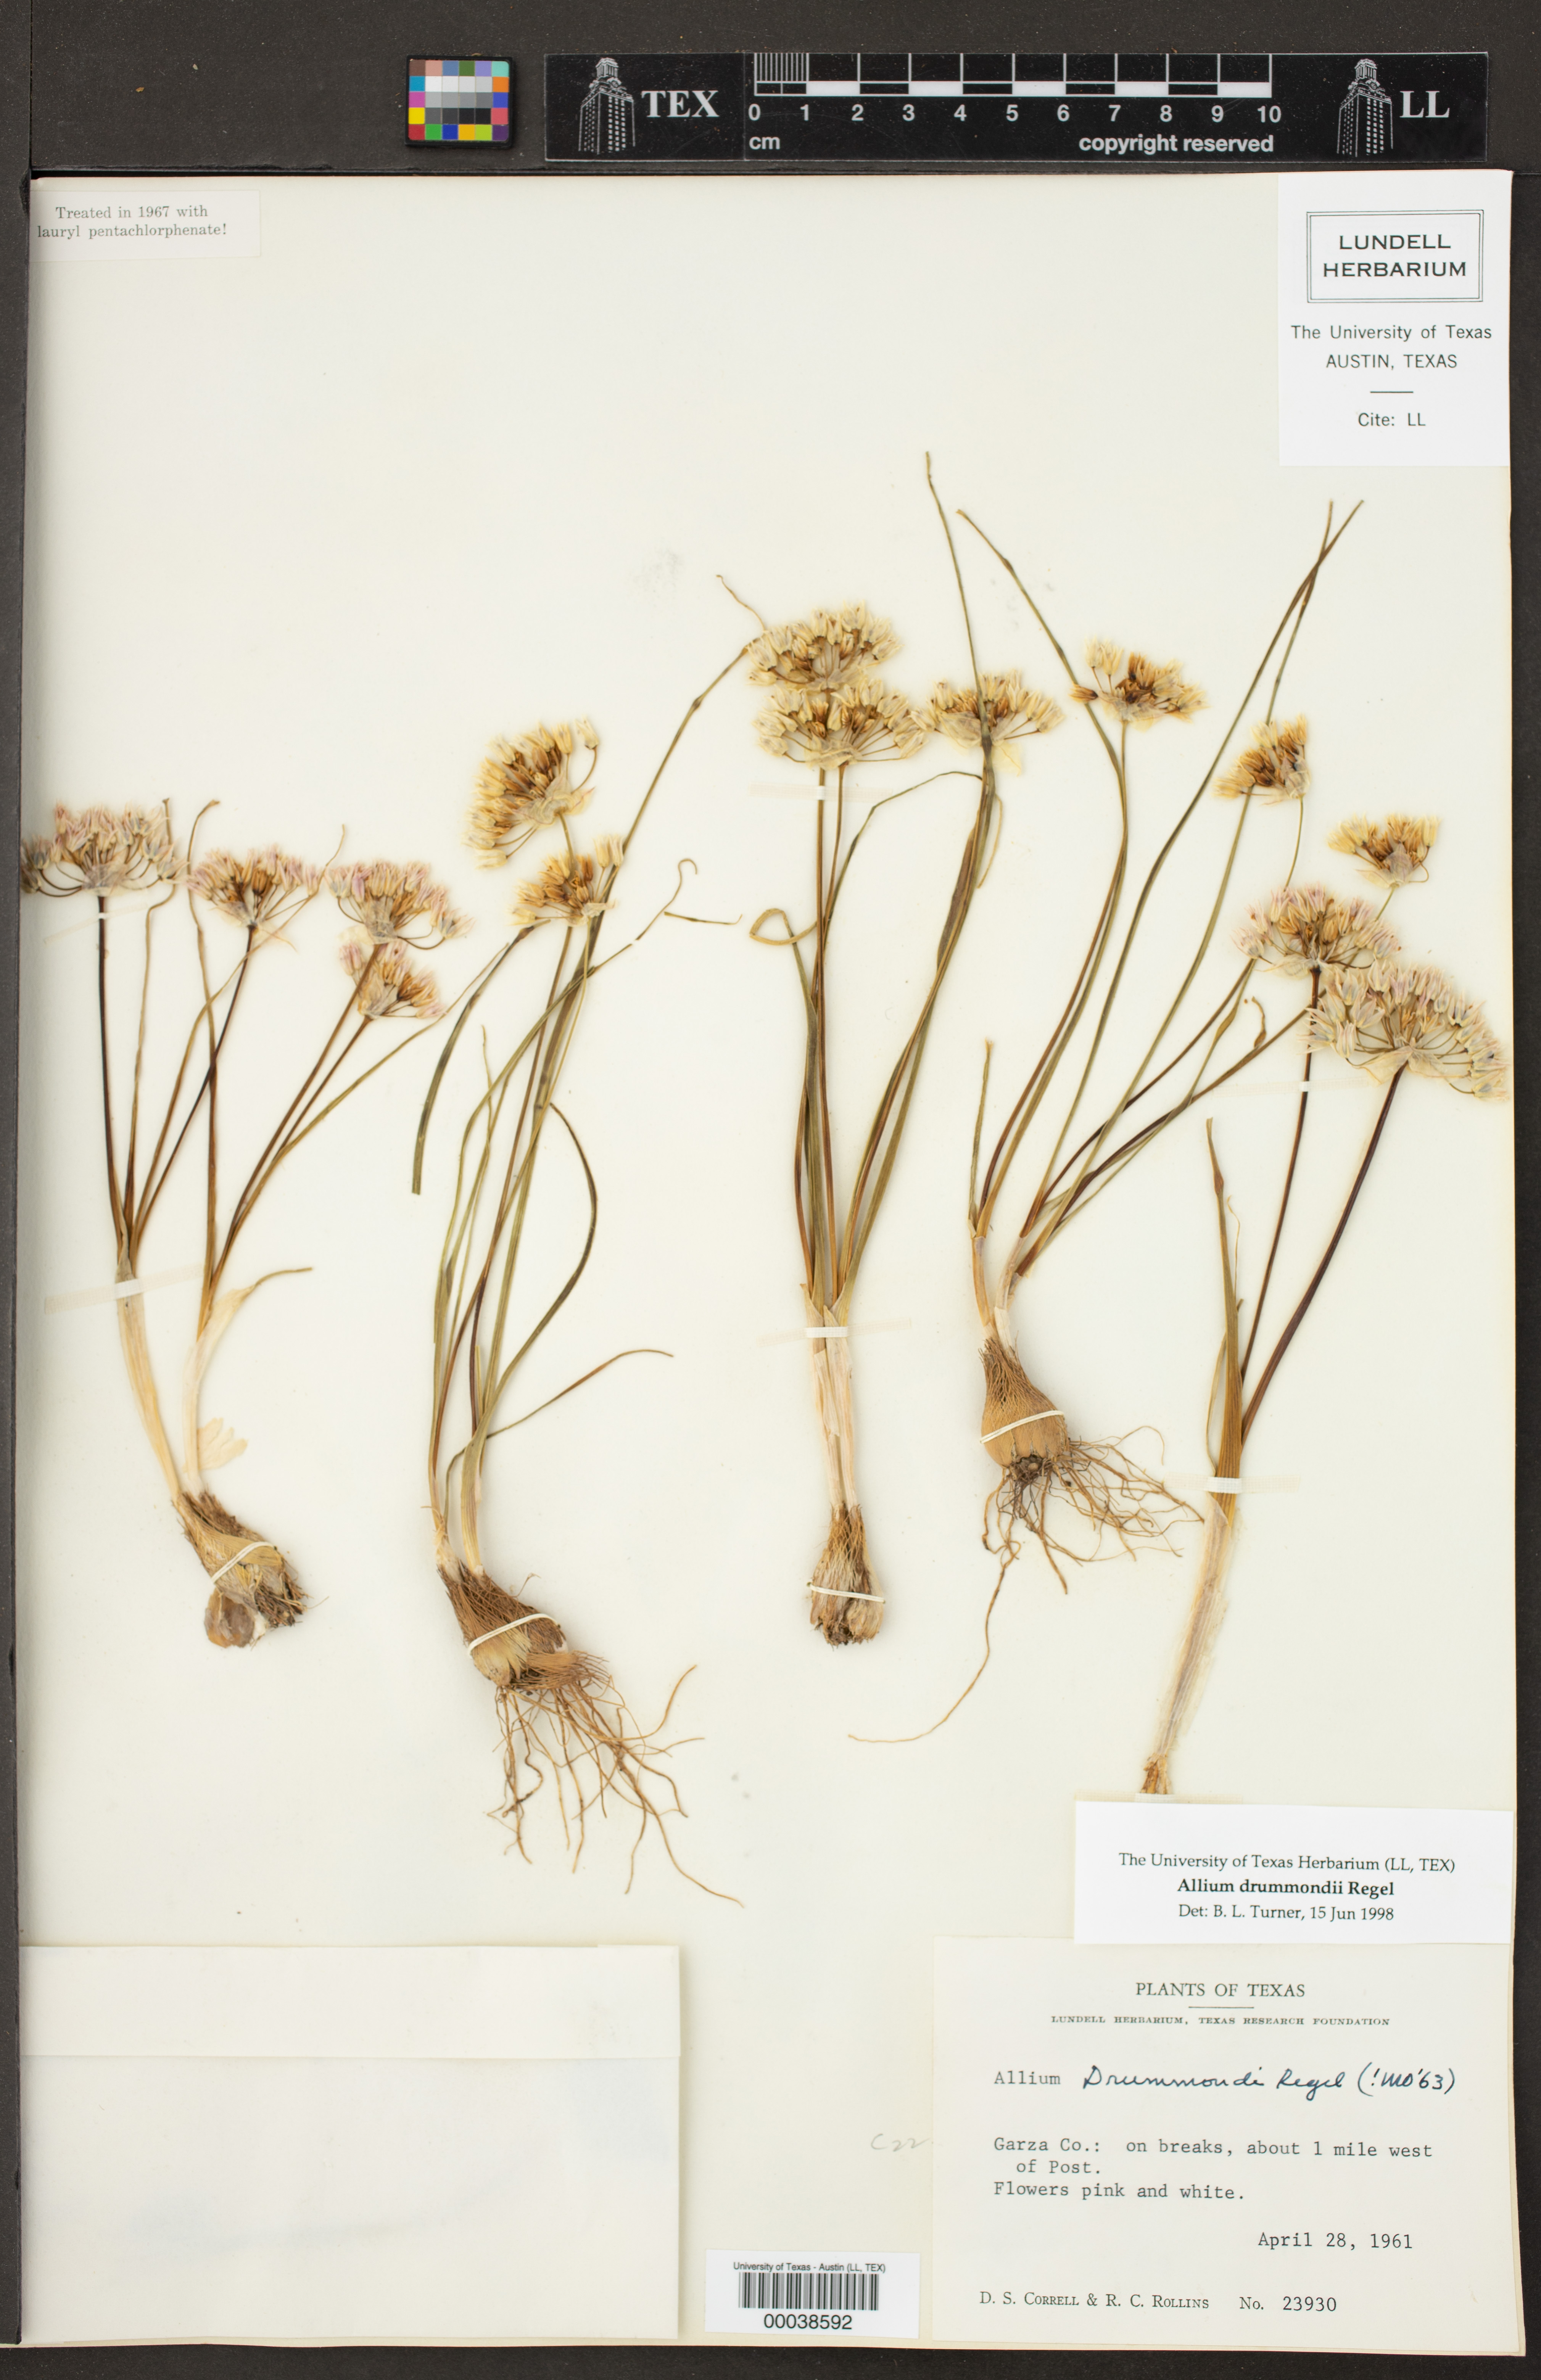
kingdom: Plantae
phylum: Tracheophyta
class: Liliopsida
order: Asparagales
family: Amaryllidaceae
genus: Allium
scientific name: Allium drummondii
